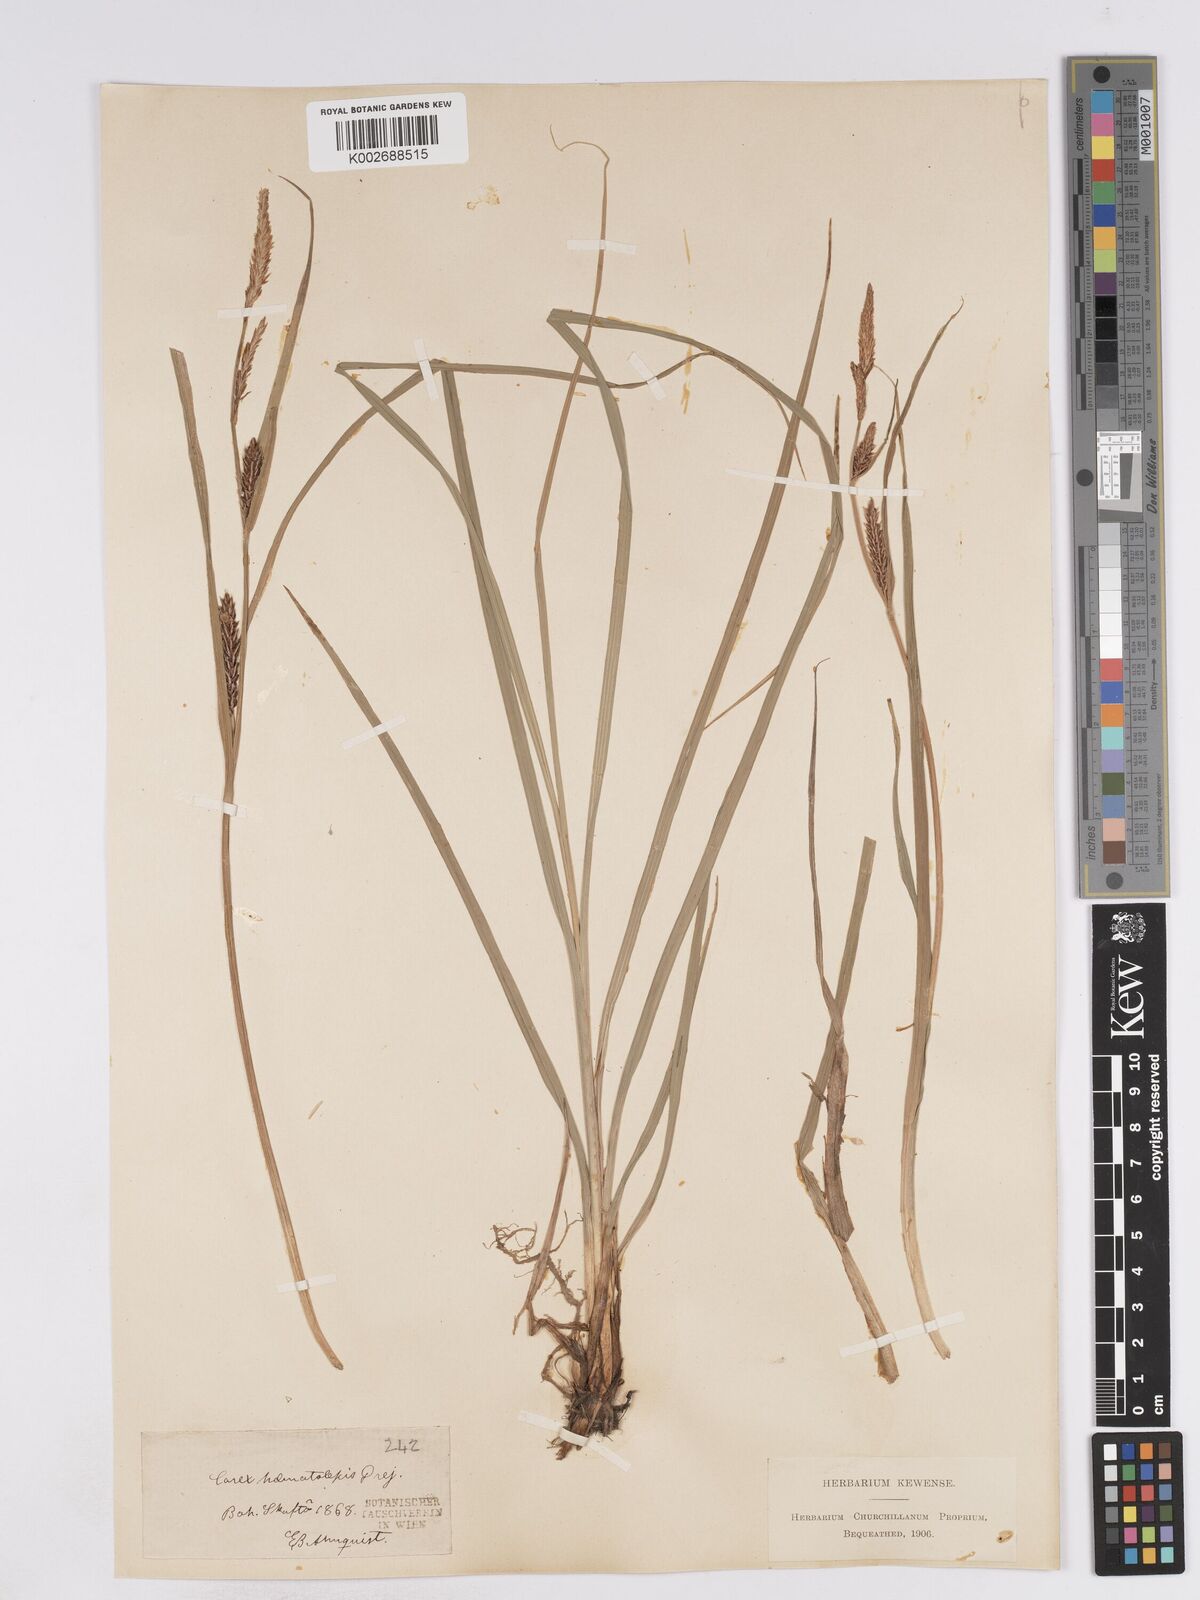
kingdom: Plantae
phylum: Tracheophyta
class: Liliopsida
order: Poales
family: Cyperaceae
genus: Carex
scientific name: Carex recta
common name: Estuarine sedge
